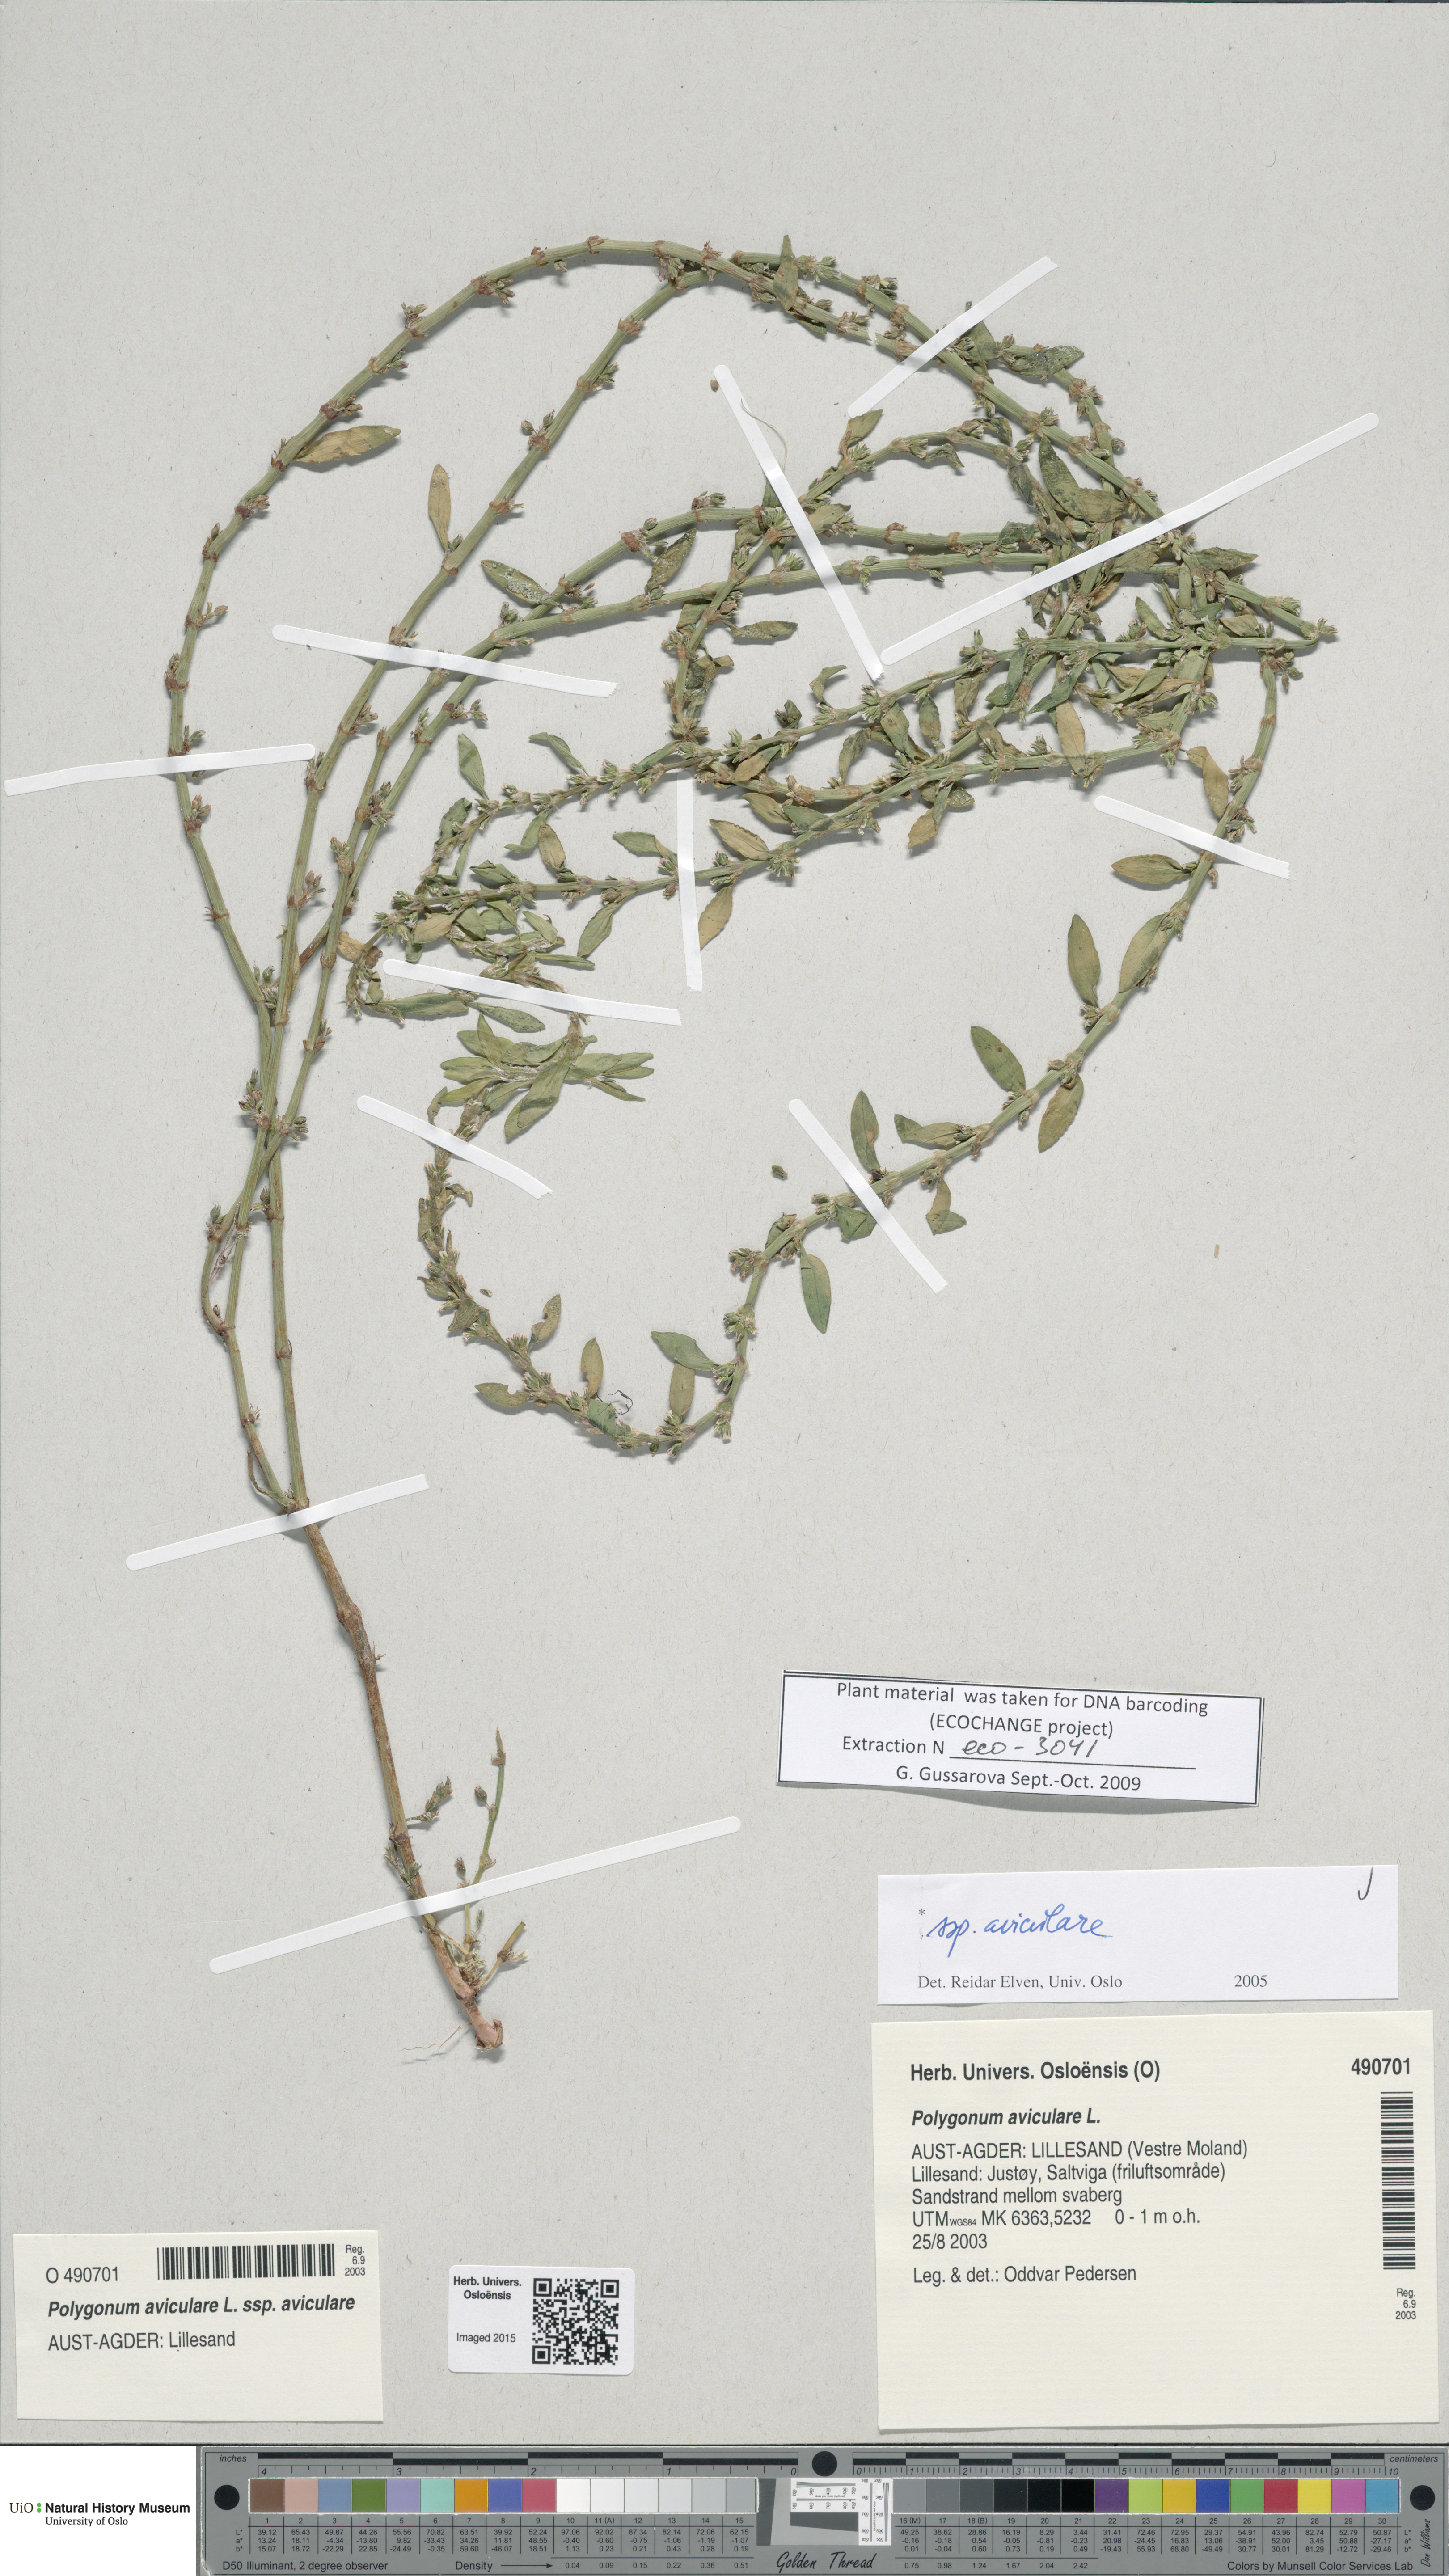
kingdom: Plantae
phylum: Tracheophyta
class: Magnoliopsida
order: Caryophyllales
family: Polygonaceae
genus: Polygonum
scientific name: Polygonum aviculare
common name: Prostrate knotweed
